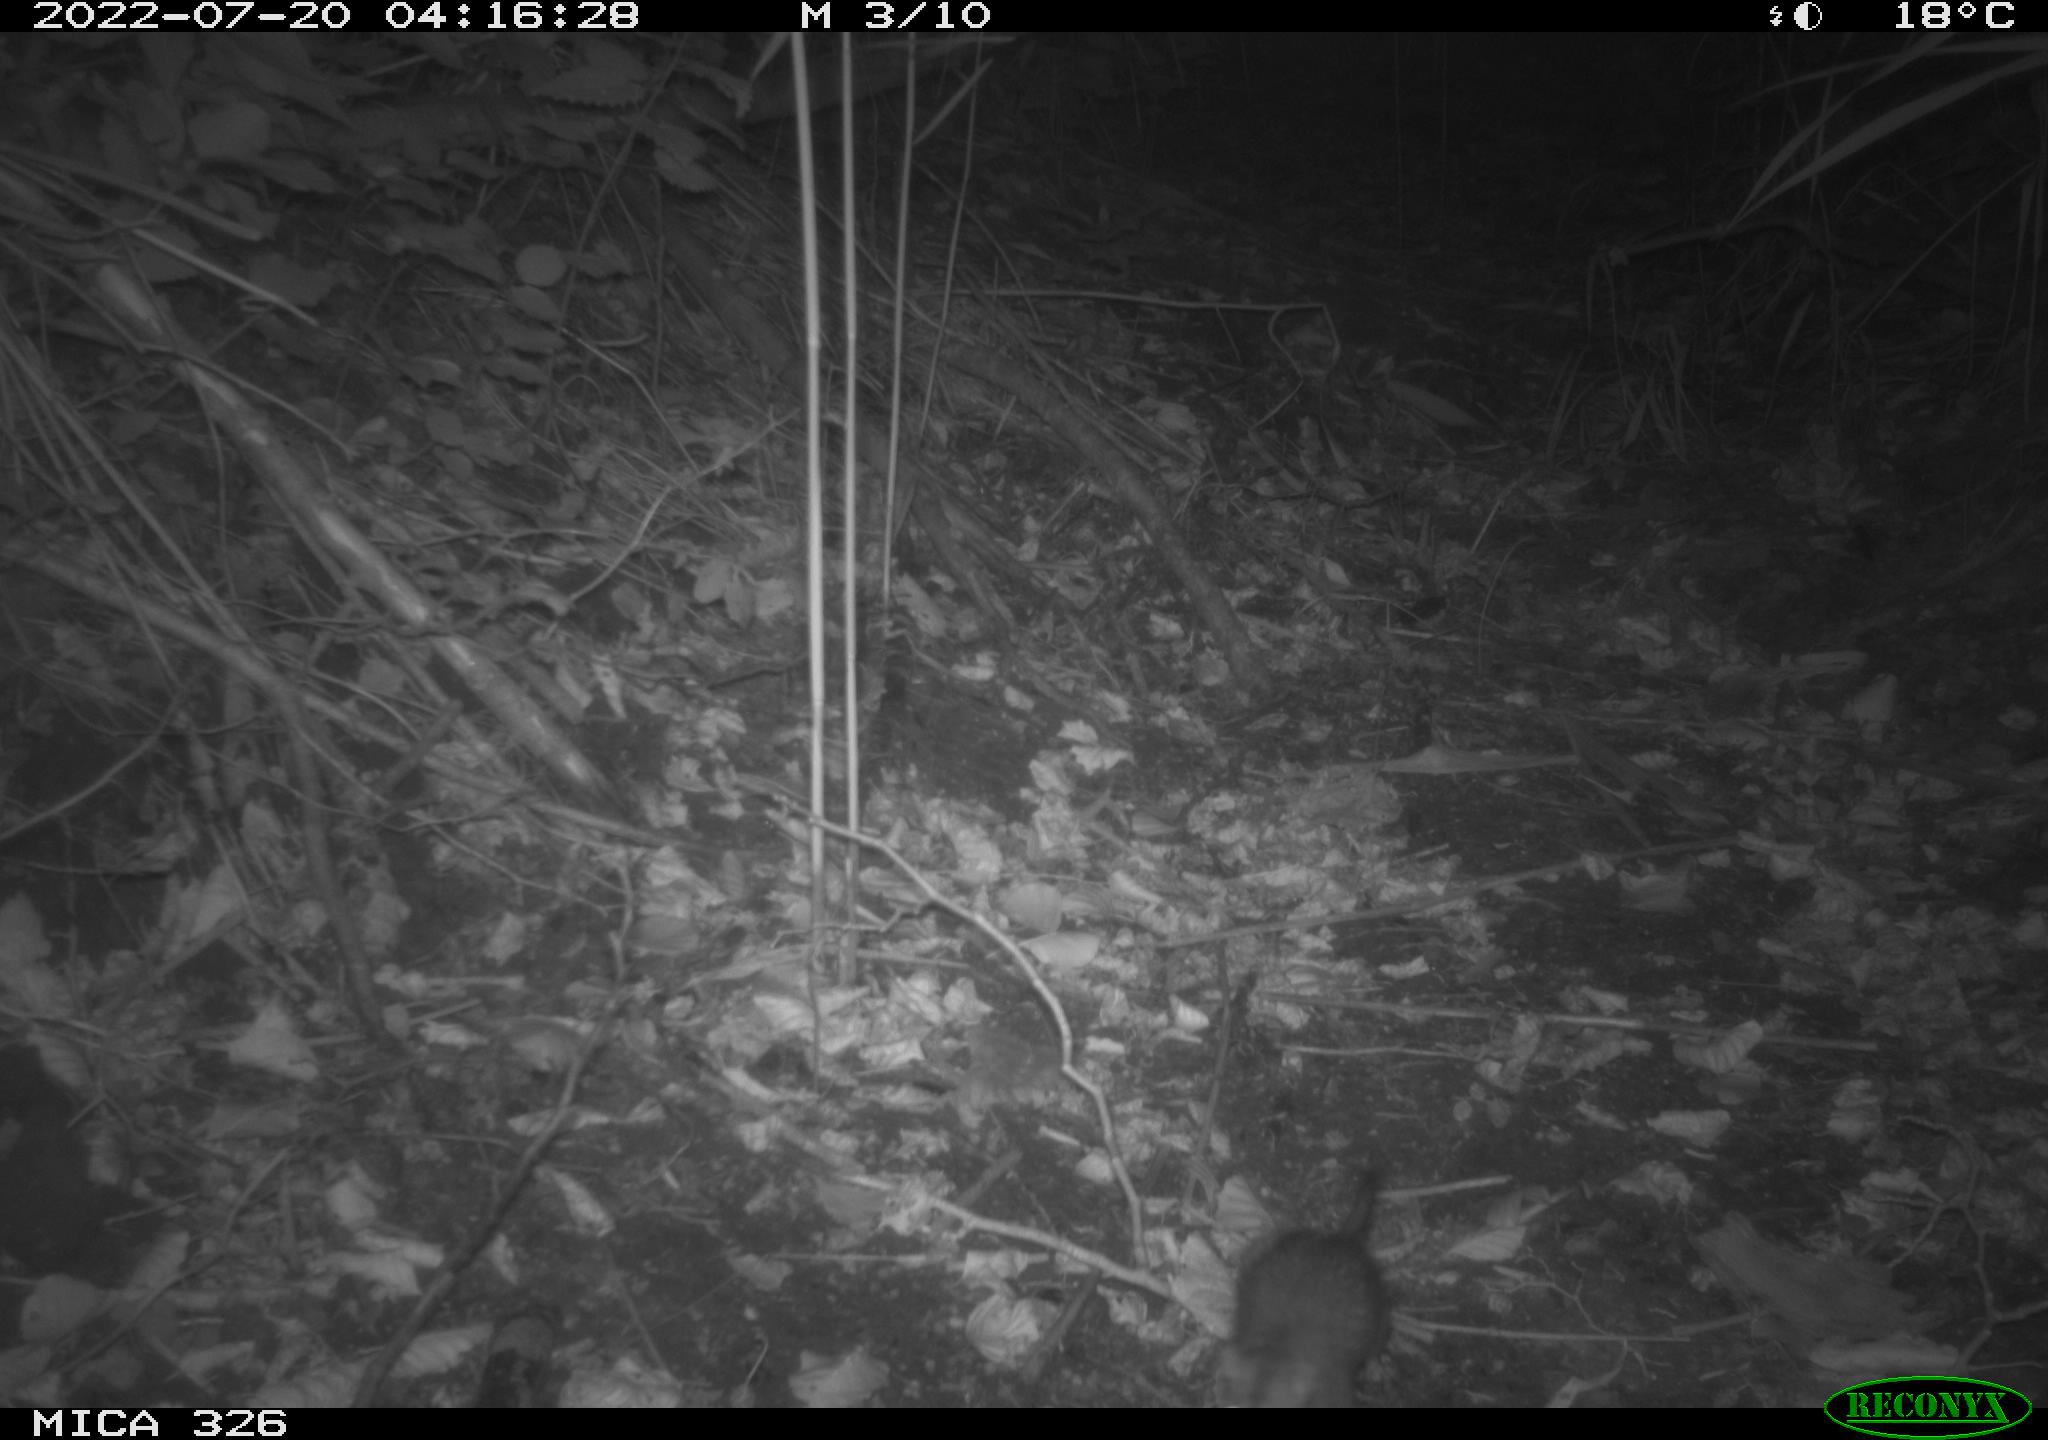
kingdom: Animalia
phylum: Chordata
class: Mammalia
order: Rodentia
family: Muridae
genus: Rattus
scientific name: Rattus norvegicus
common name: Brown rat
